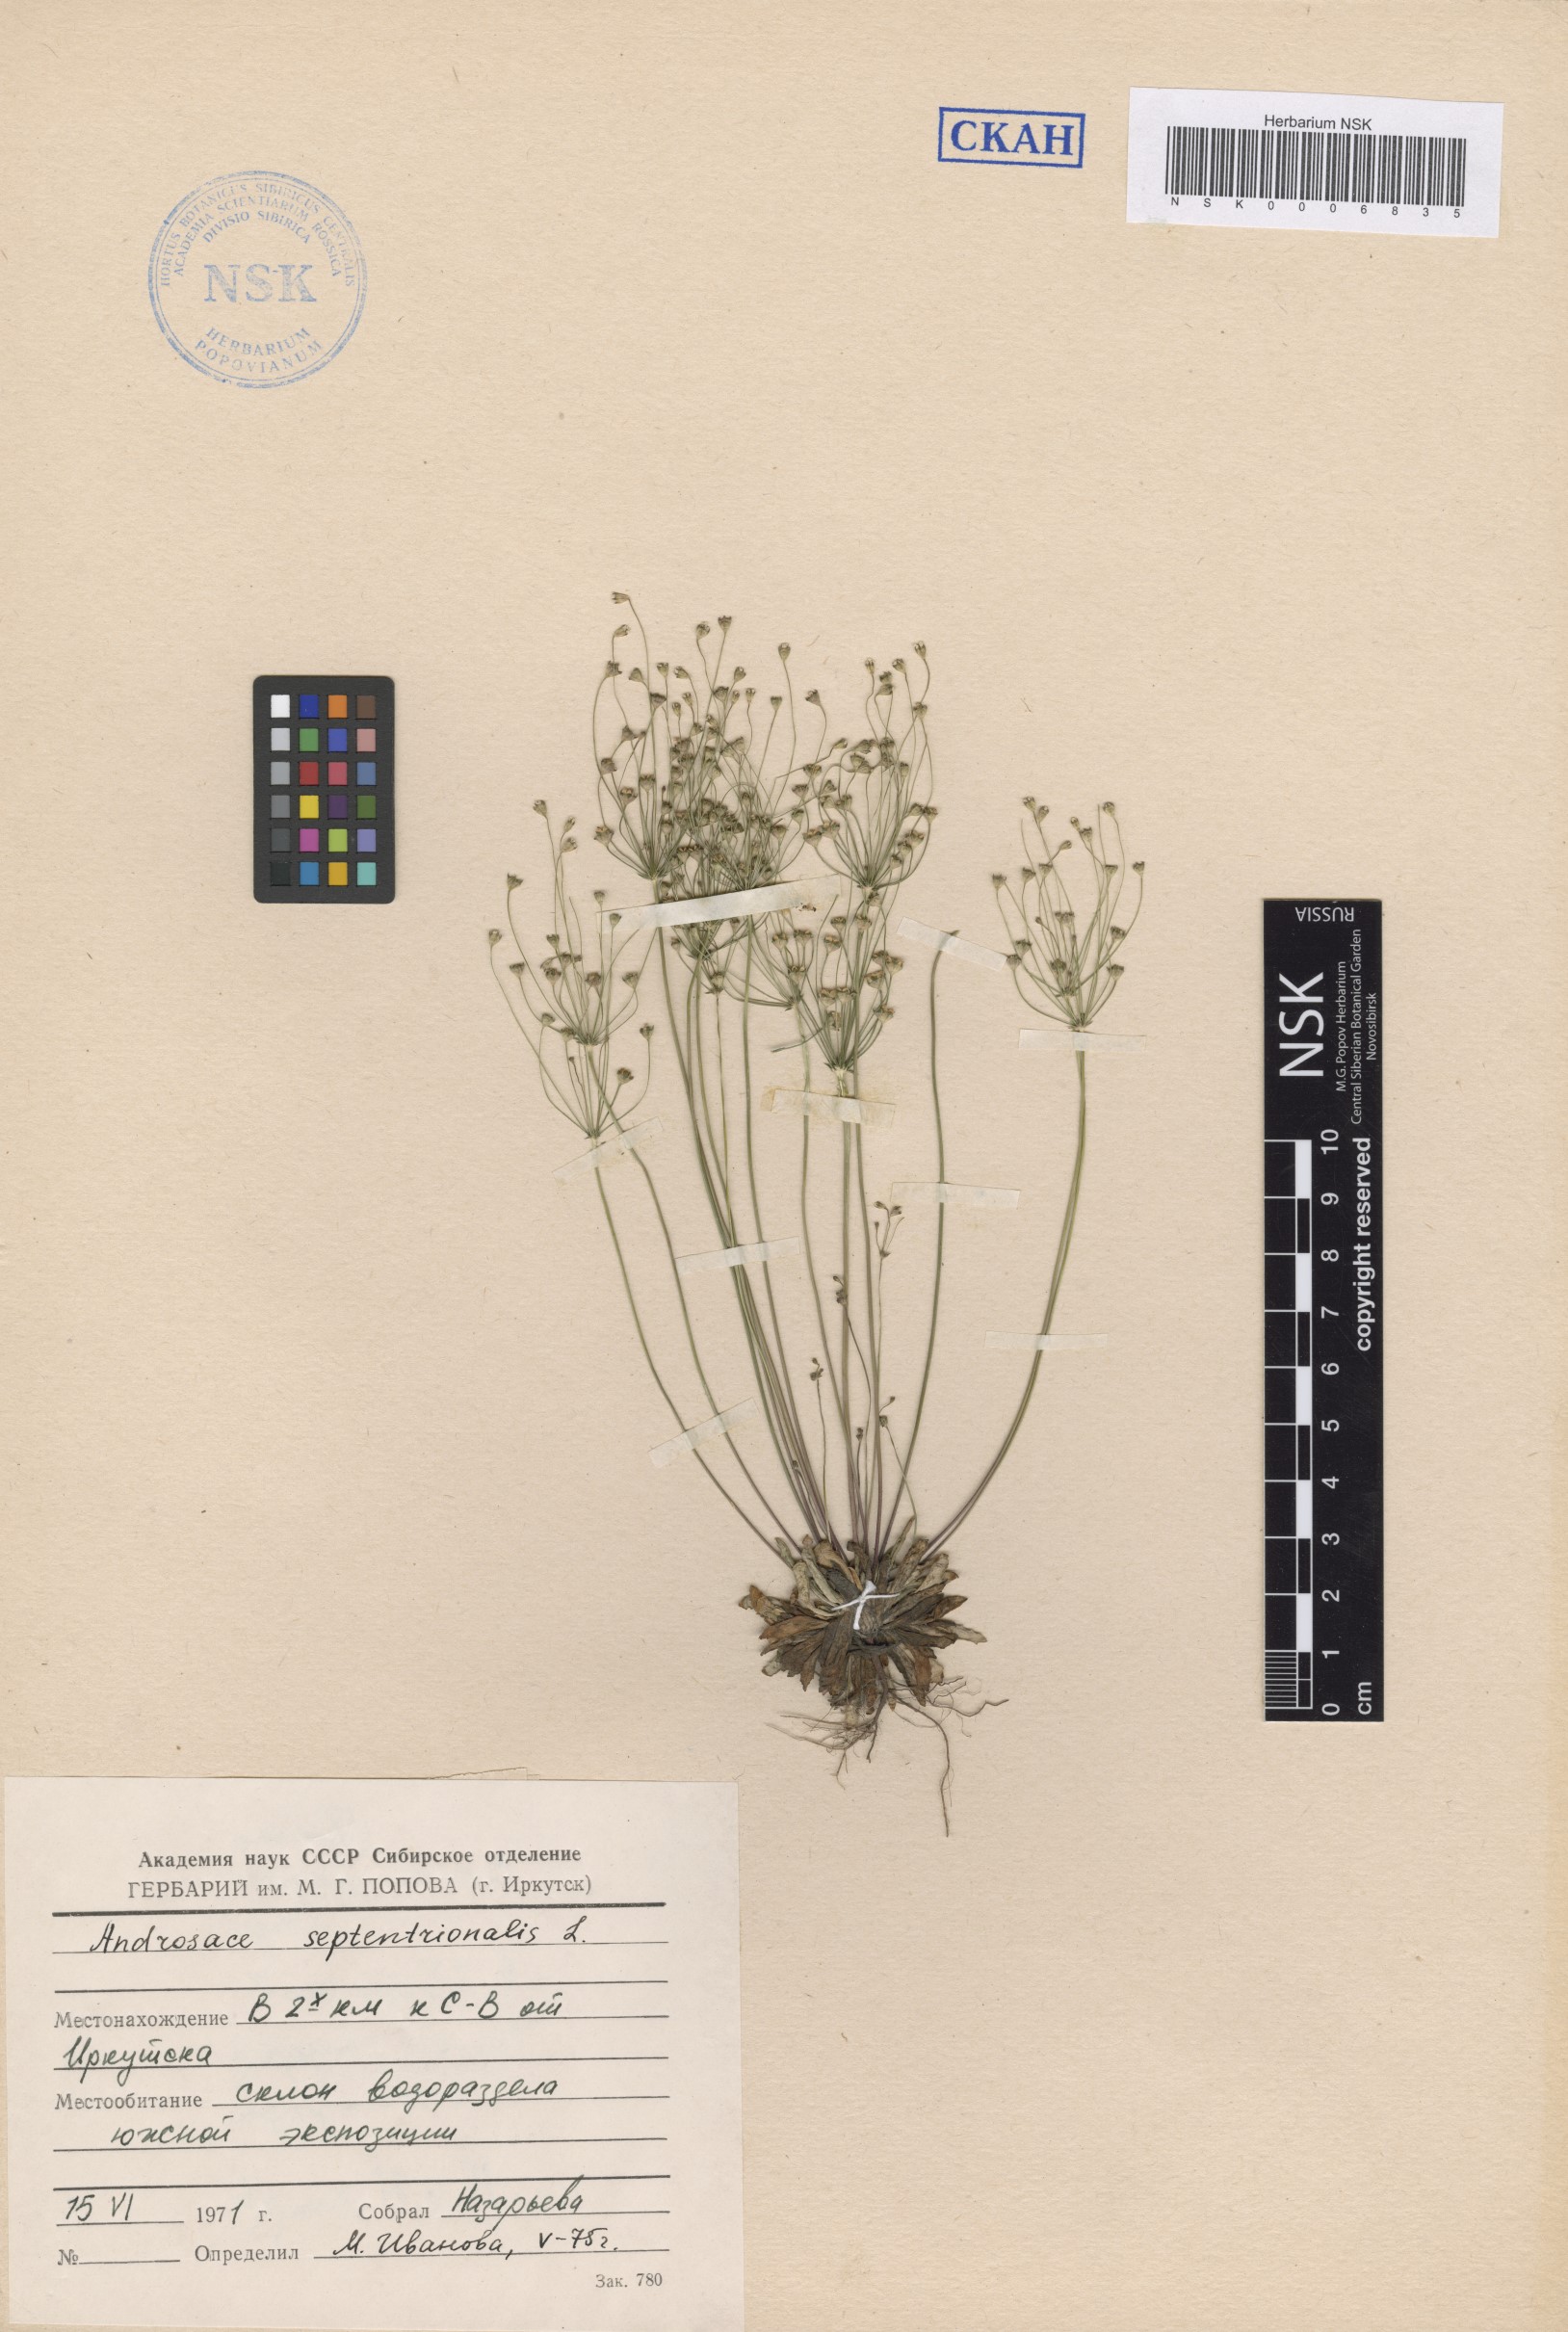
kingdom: Plantae
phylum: Tracheophyta
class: Magnoliopsida
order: Ericales
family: Primulaceae
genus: Androsace
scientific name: Androsace septentrionalis
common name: Hairy northern fairy-candelabra
